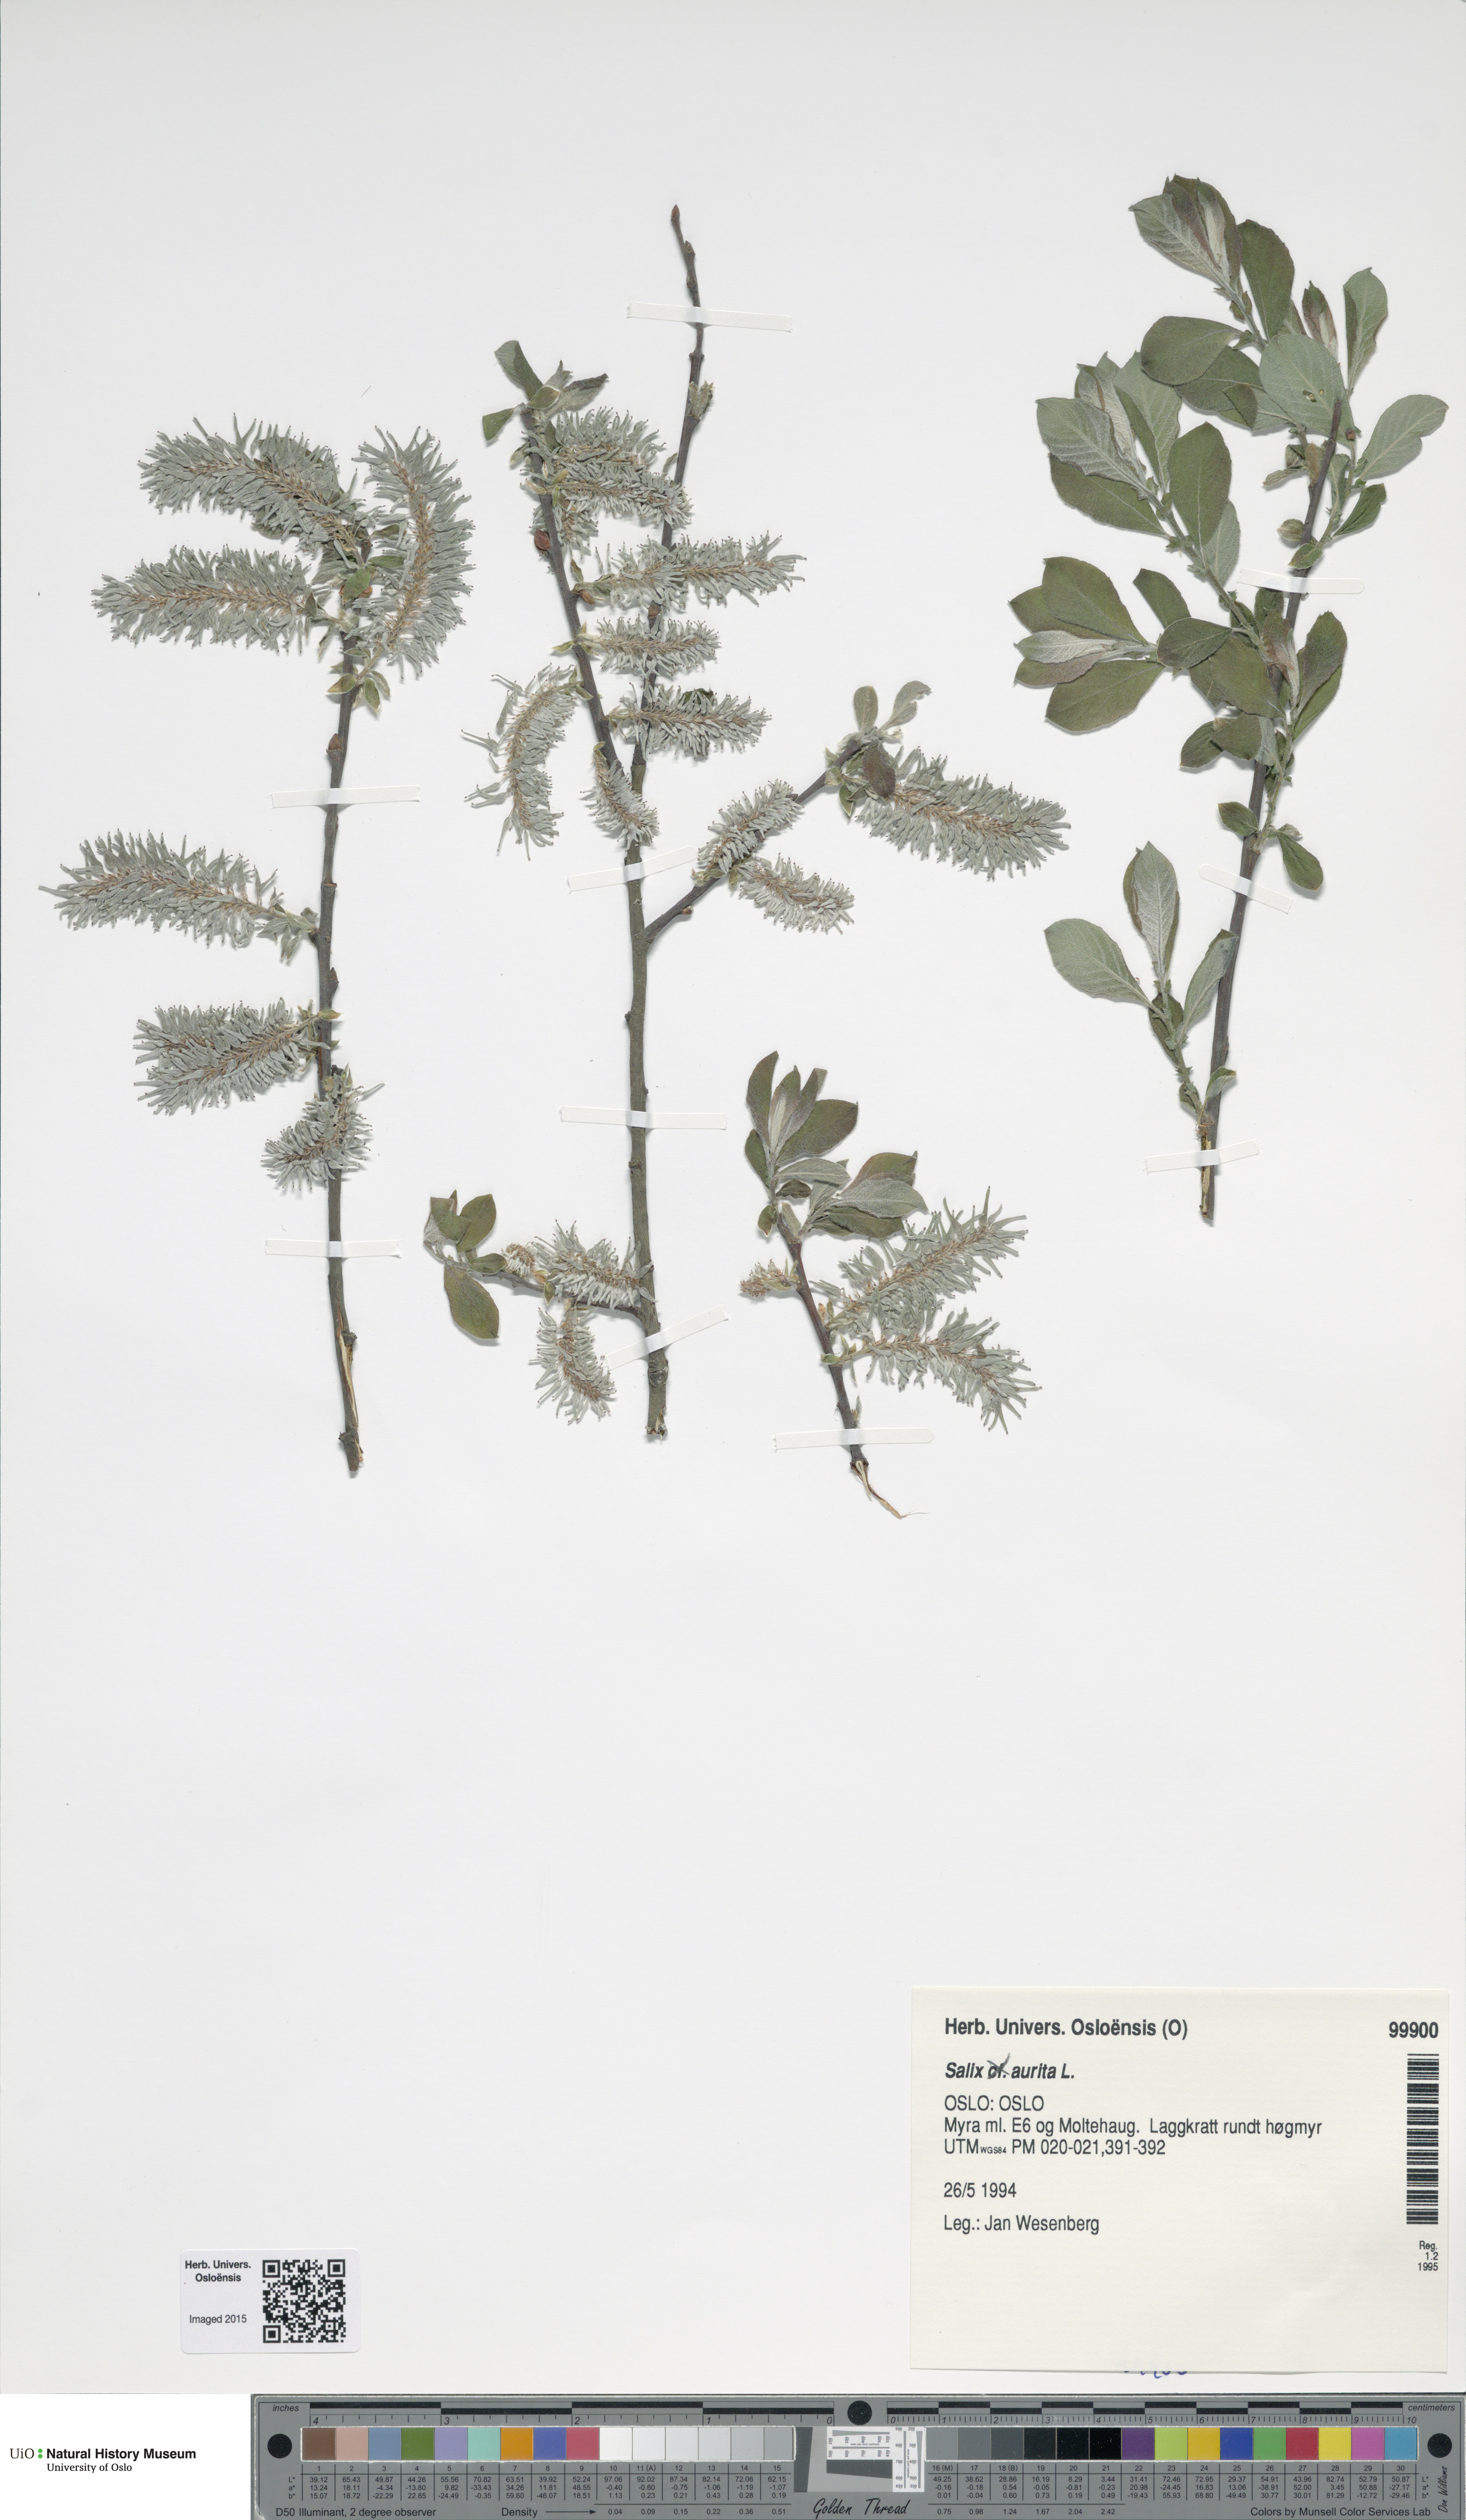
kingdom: Plantae
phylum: Tracheophyta
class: Magnoliopsida
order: Malpighiales
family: Salicaceae
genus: Salix
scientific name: Salix aurita
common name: Eared willow
